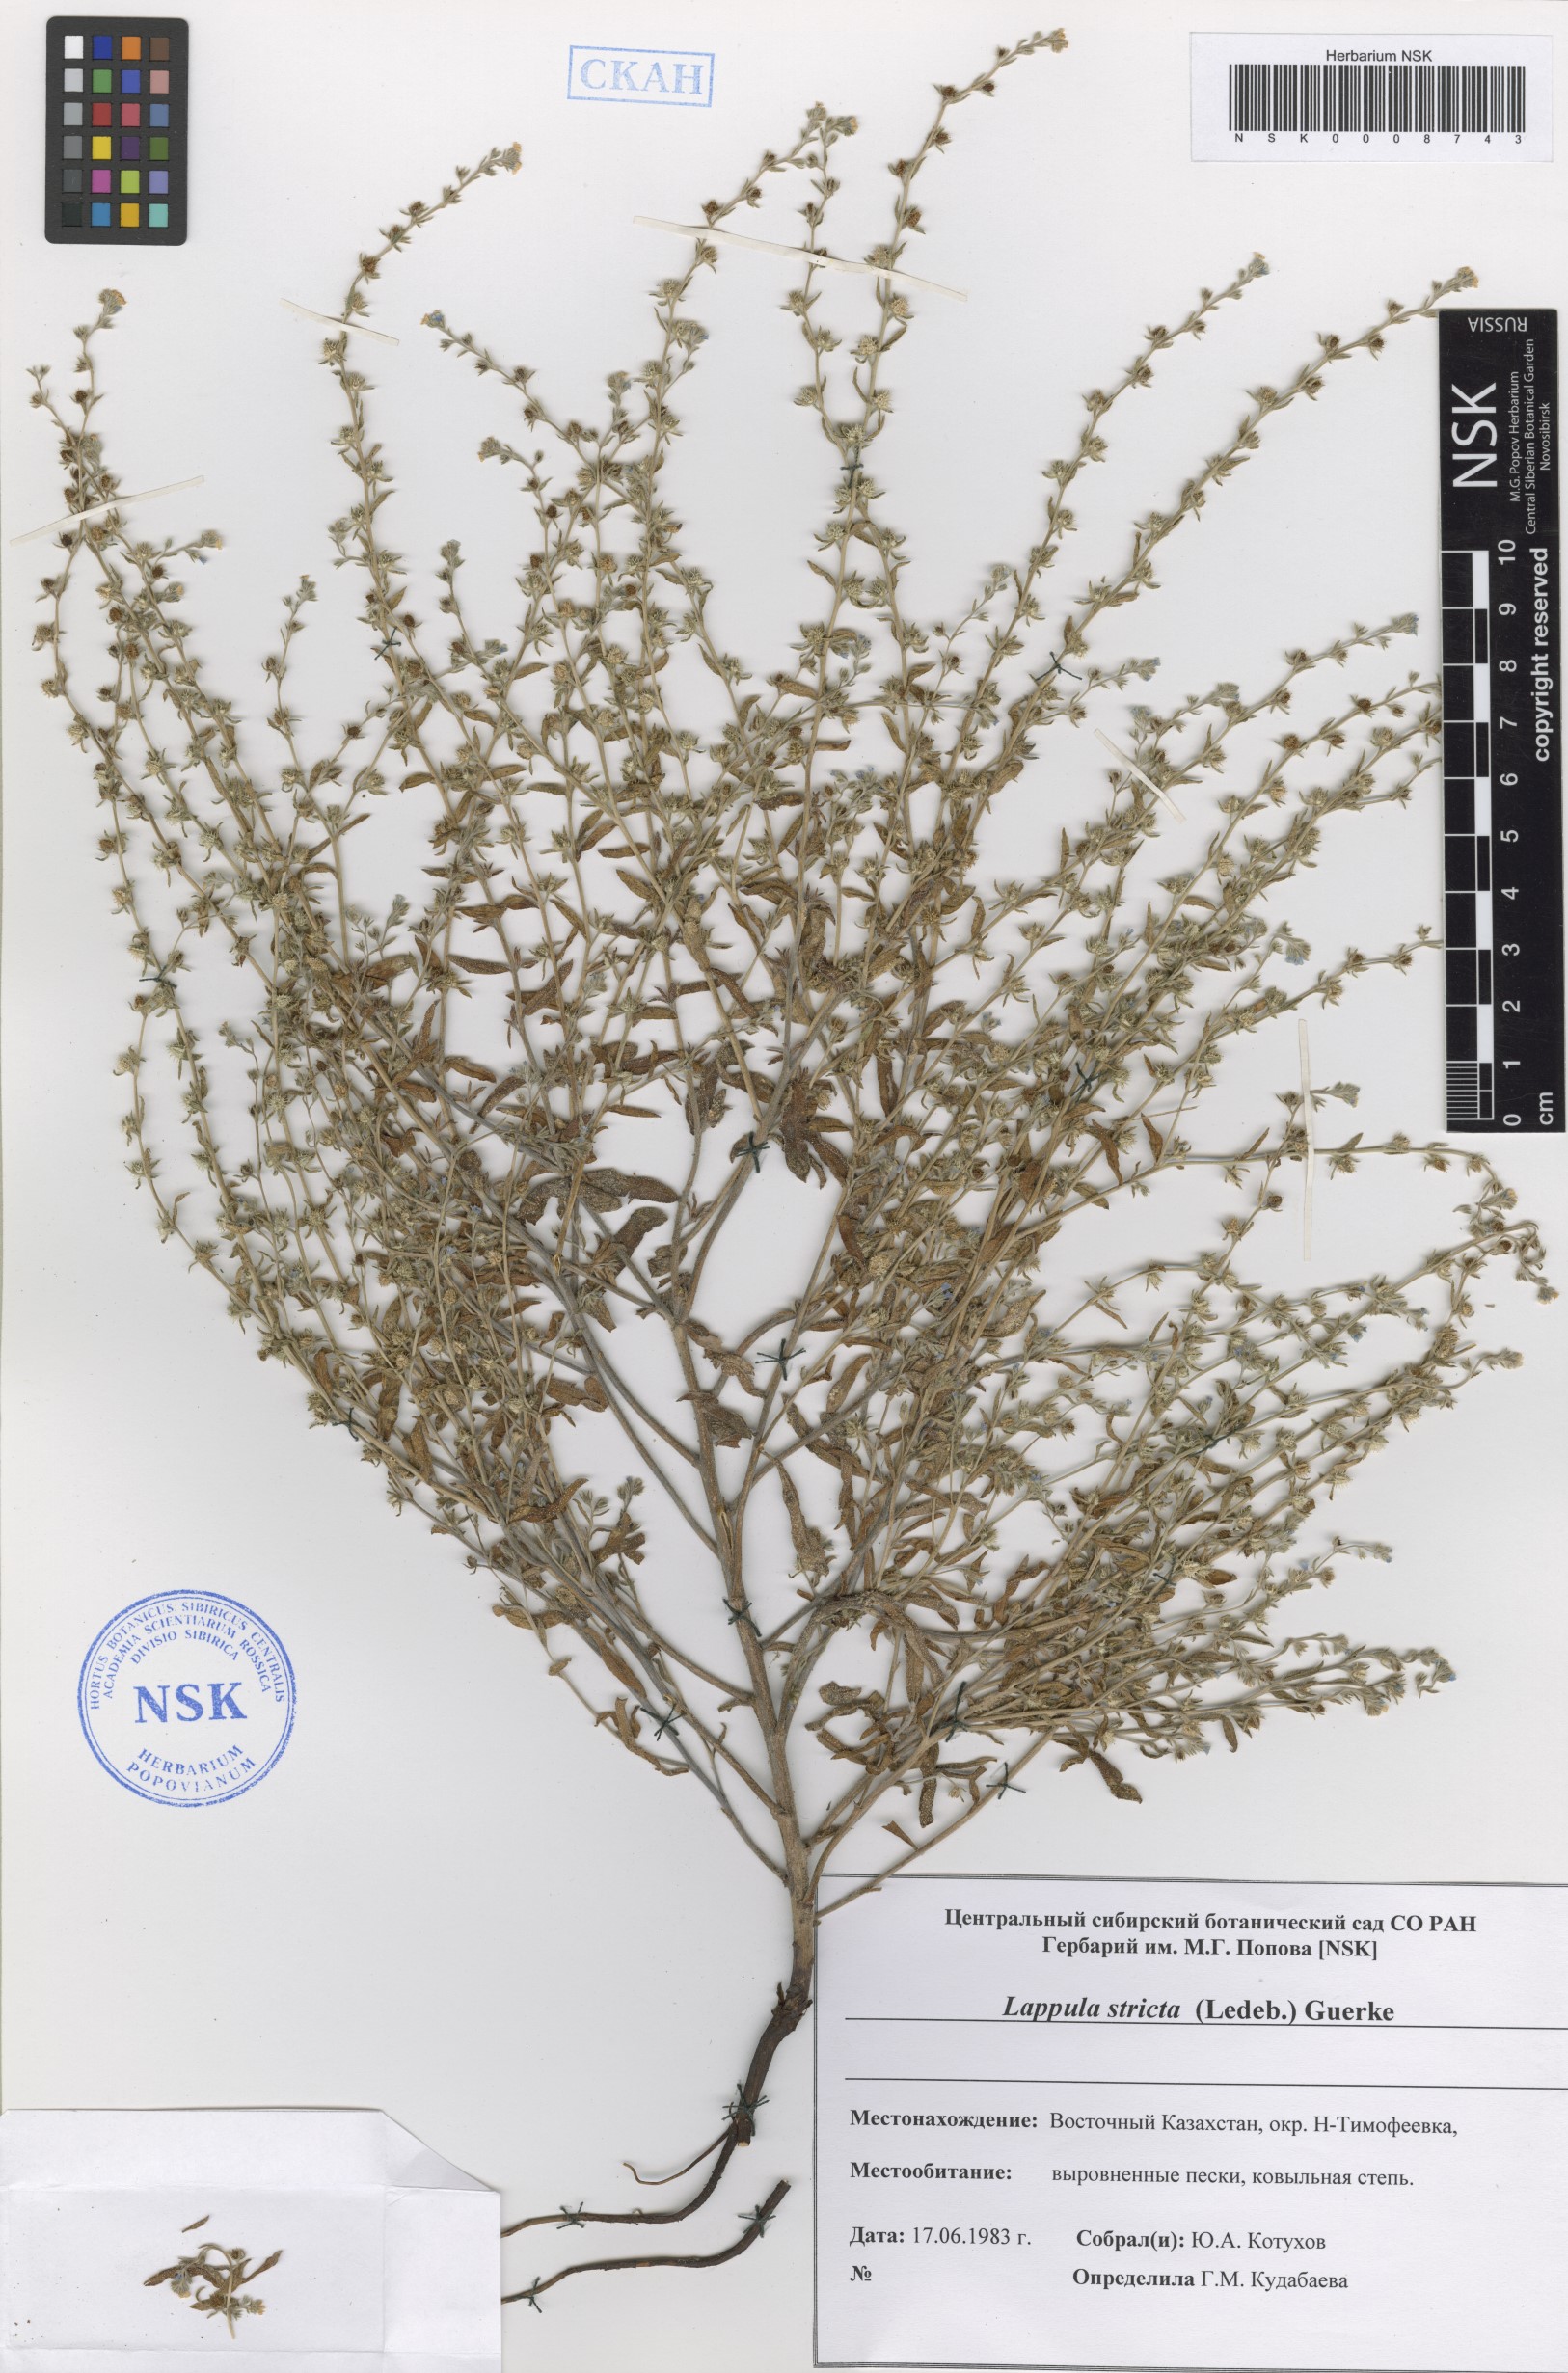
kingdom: Plantae
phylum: Tracheophyta
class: Magnoliopsida
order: Boraginales
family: Boraginaceae
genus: Lappula
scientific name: Lappula stricta
